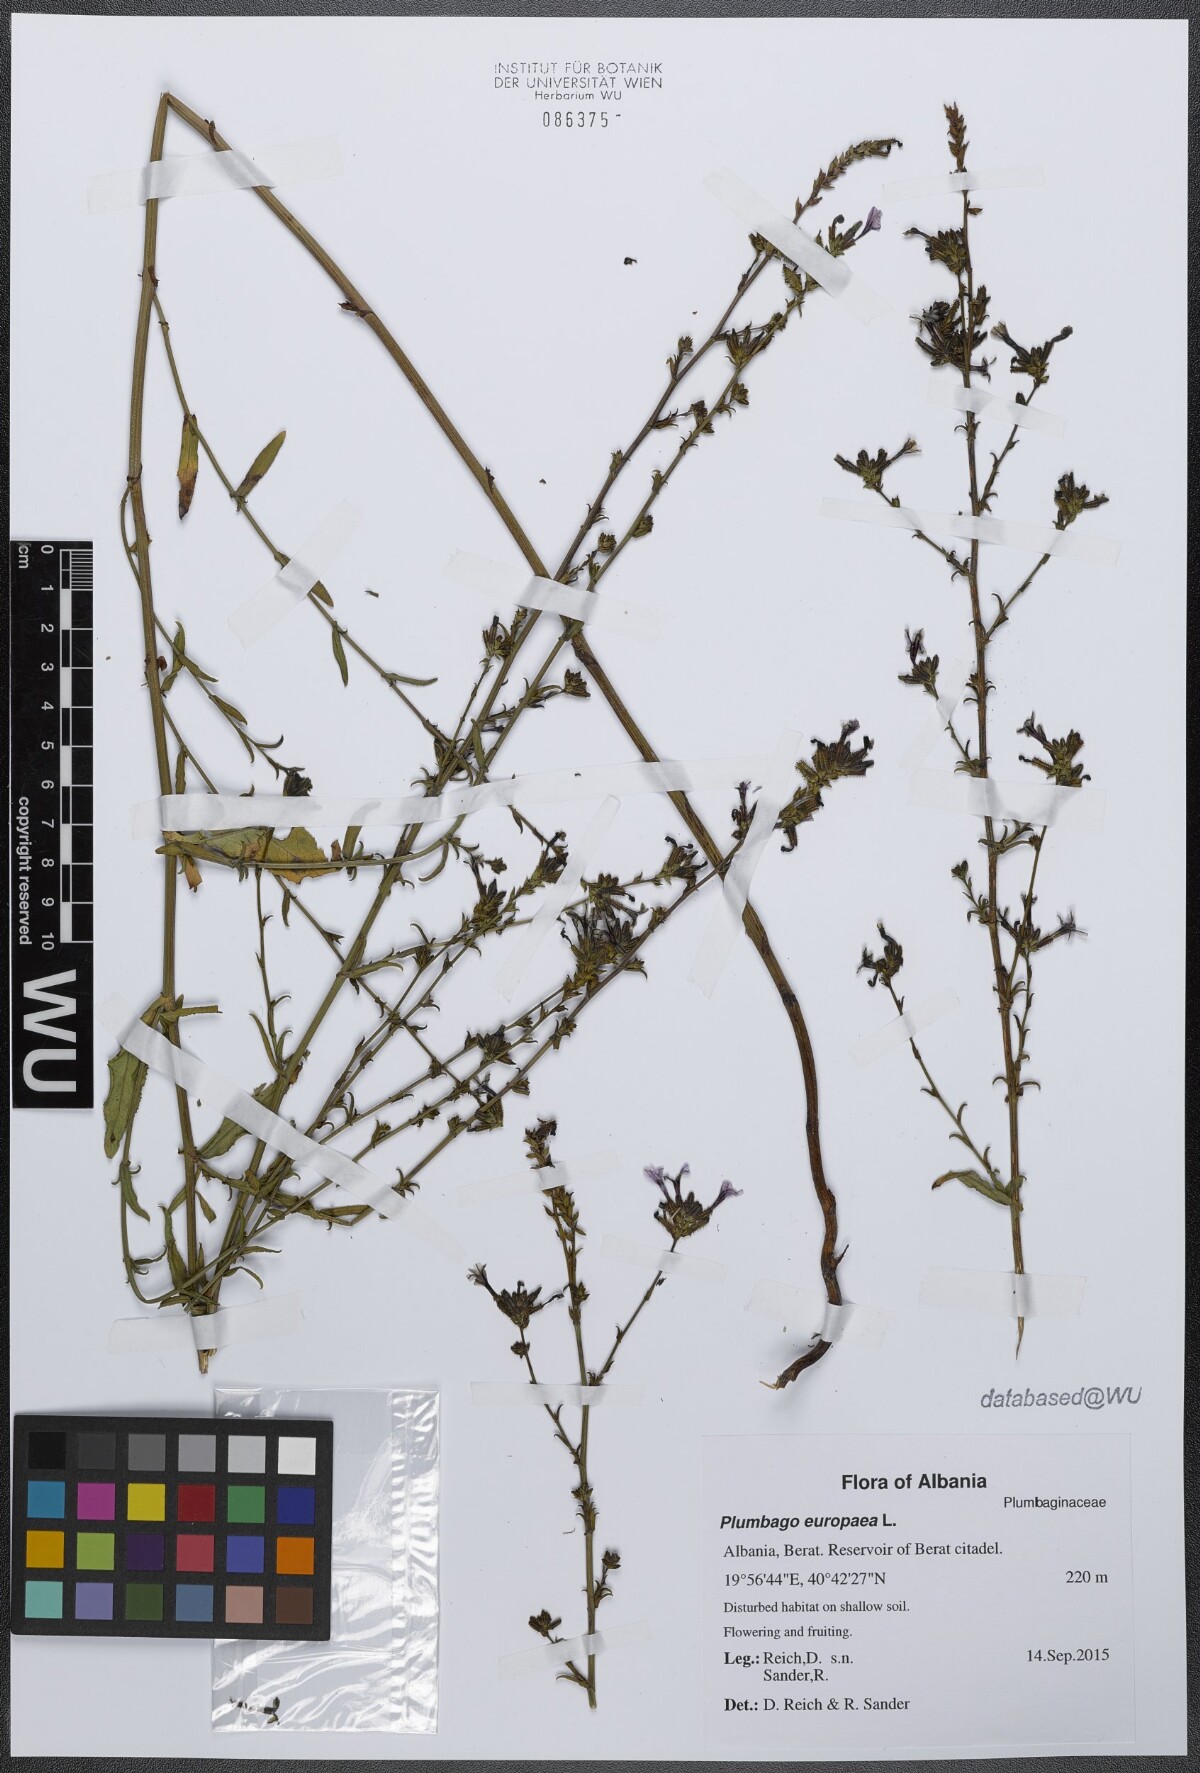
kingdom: Plantae
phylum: Tracheophyta
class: Magnoliopsida
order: Caryophyllales
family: Plumbaginaceae
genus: Plumbago
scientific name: Plumbago europaea
